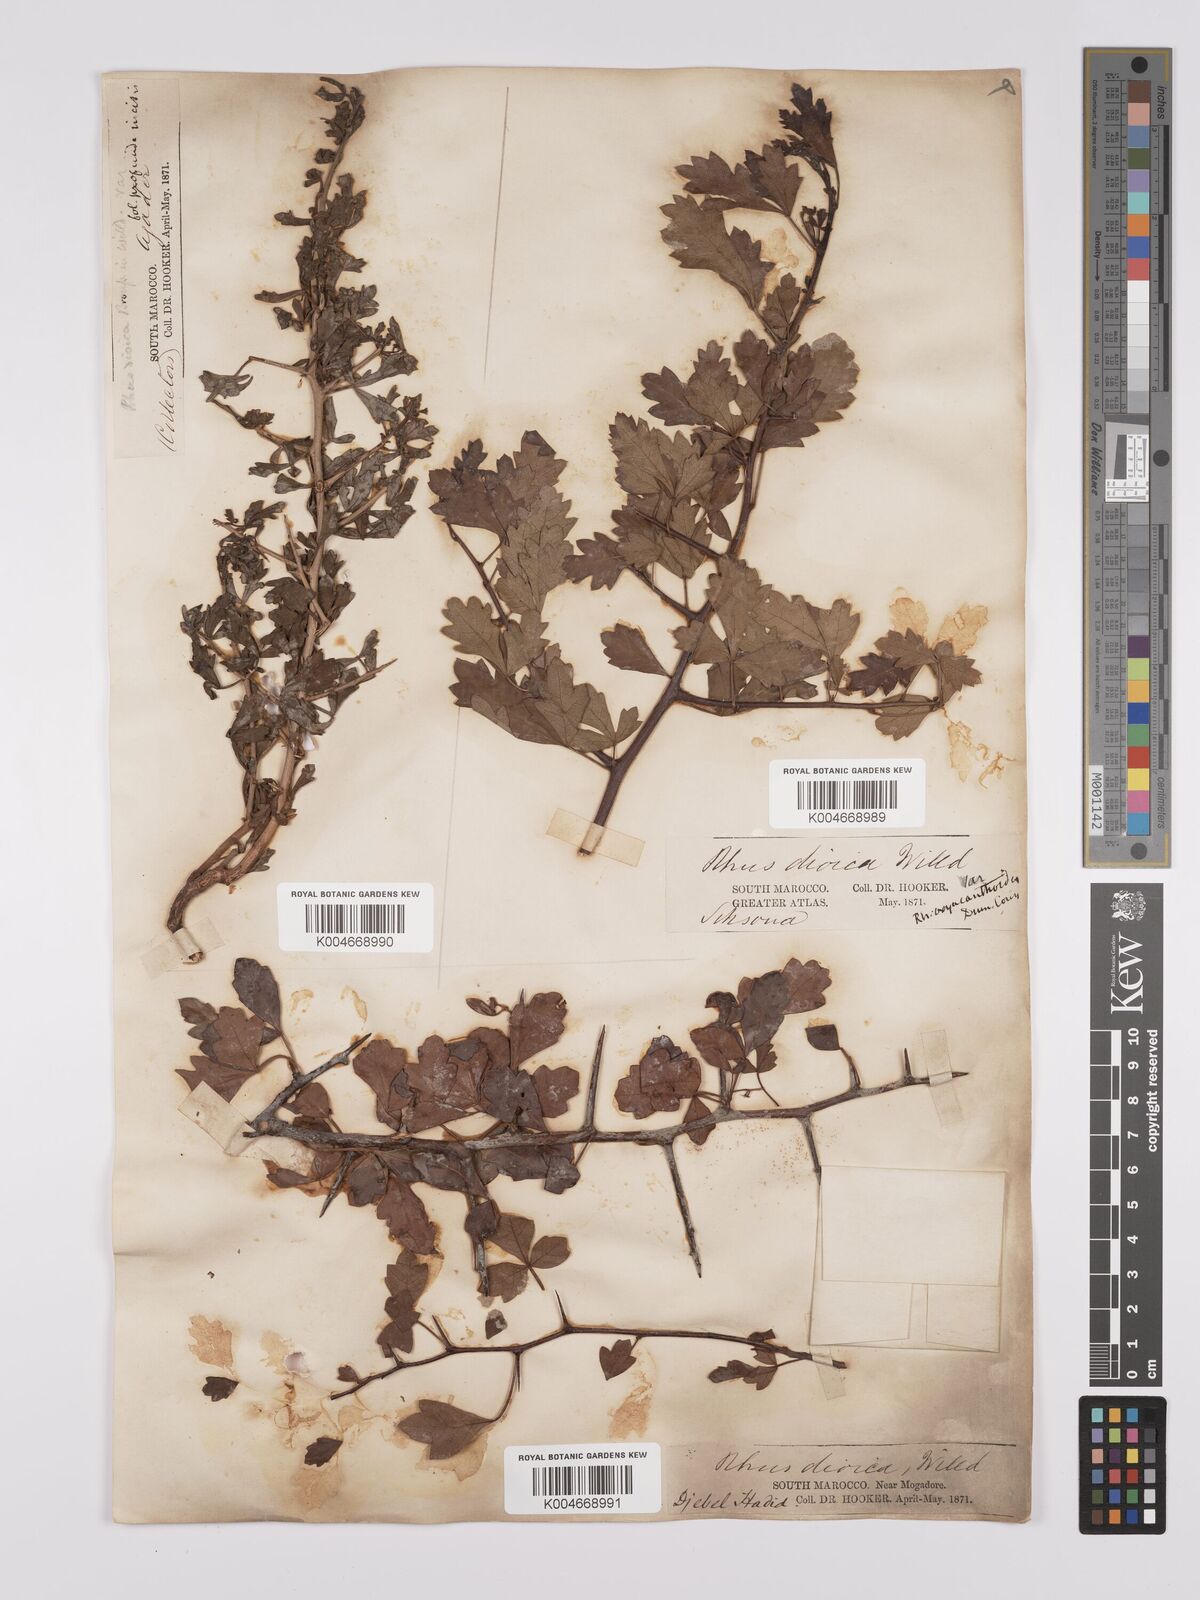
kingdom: Plantae
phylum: Tracheophyta
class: Magnoliopsida
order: Sapindales
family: Anacardiaceae
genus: Rhus
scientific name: Rhus
